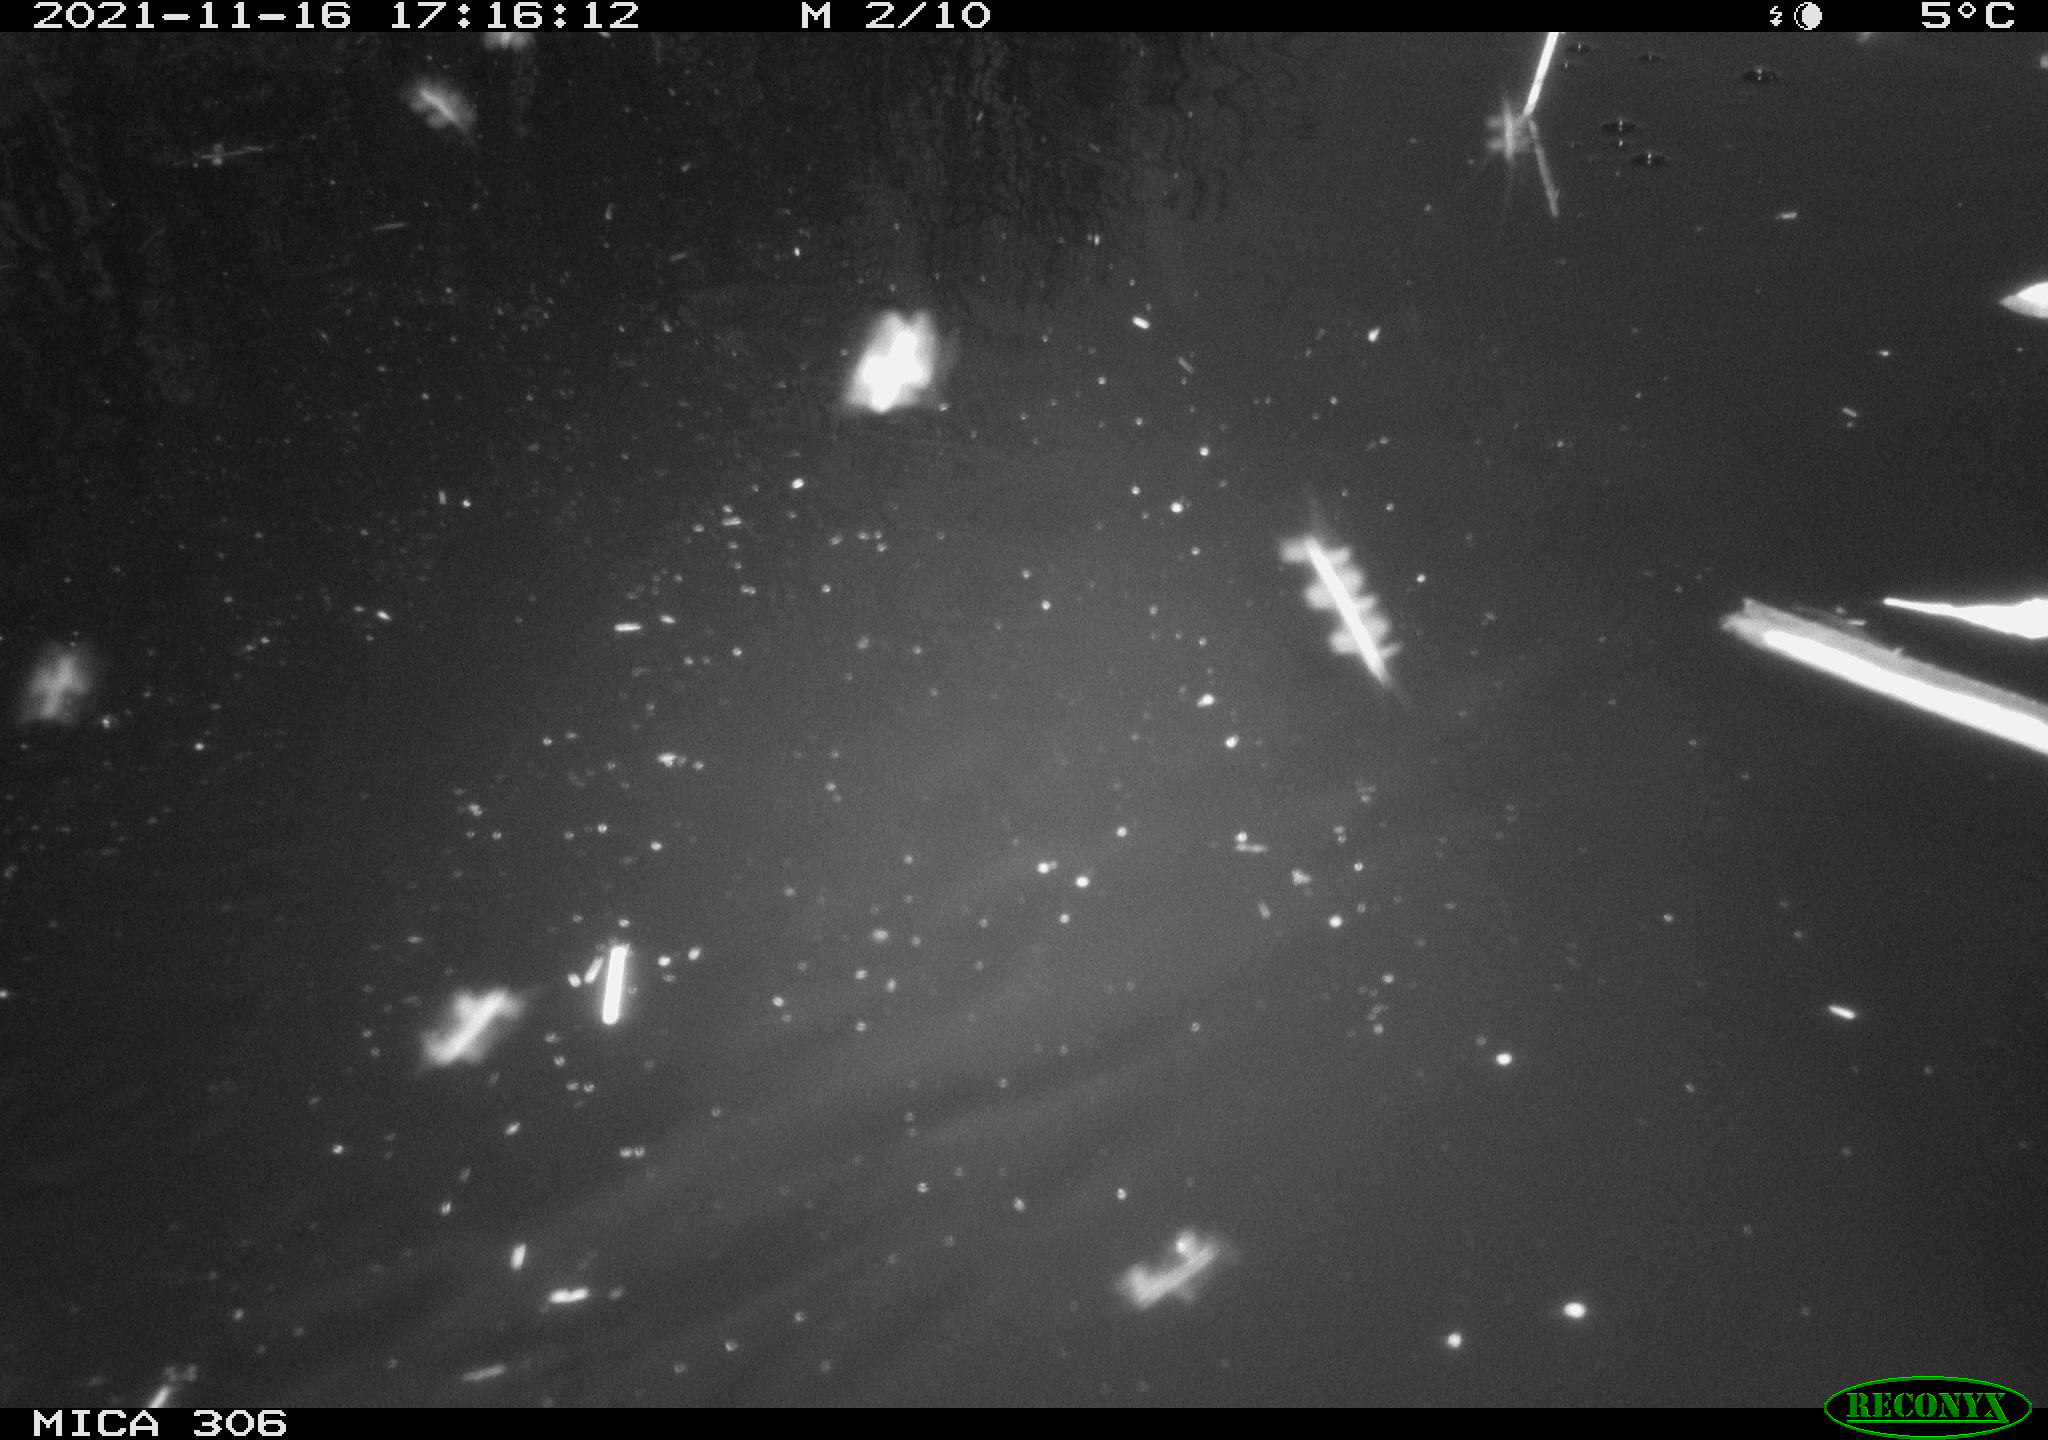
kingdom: Animalia
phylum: Chordata
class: Aves
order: Gruiformes
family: Rallidae
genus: Fulica
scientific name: Fulica atra
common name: Eurasian coot
